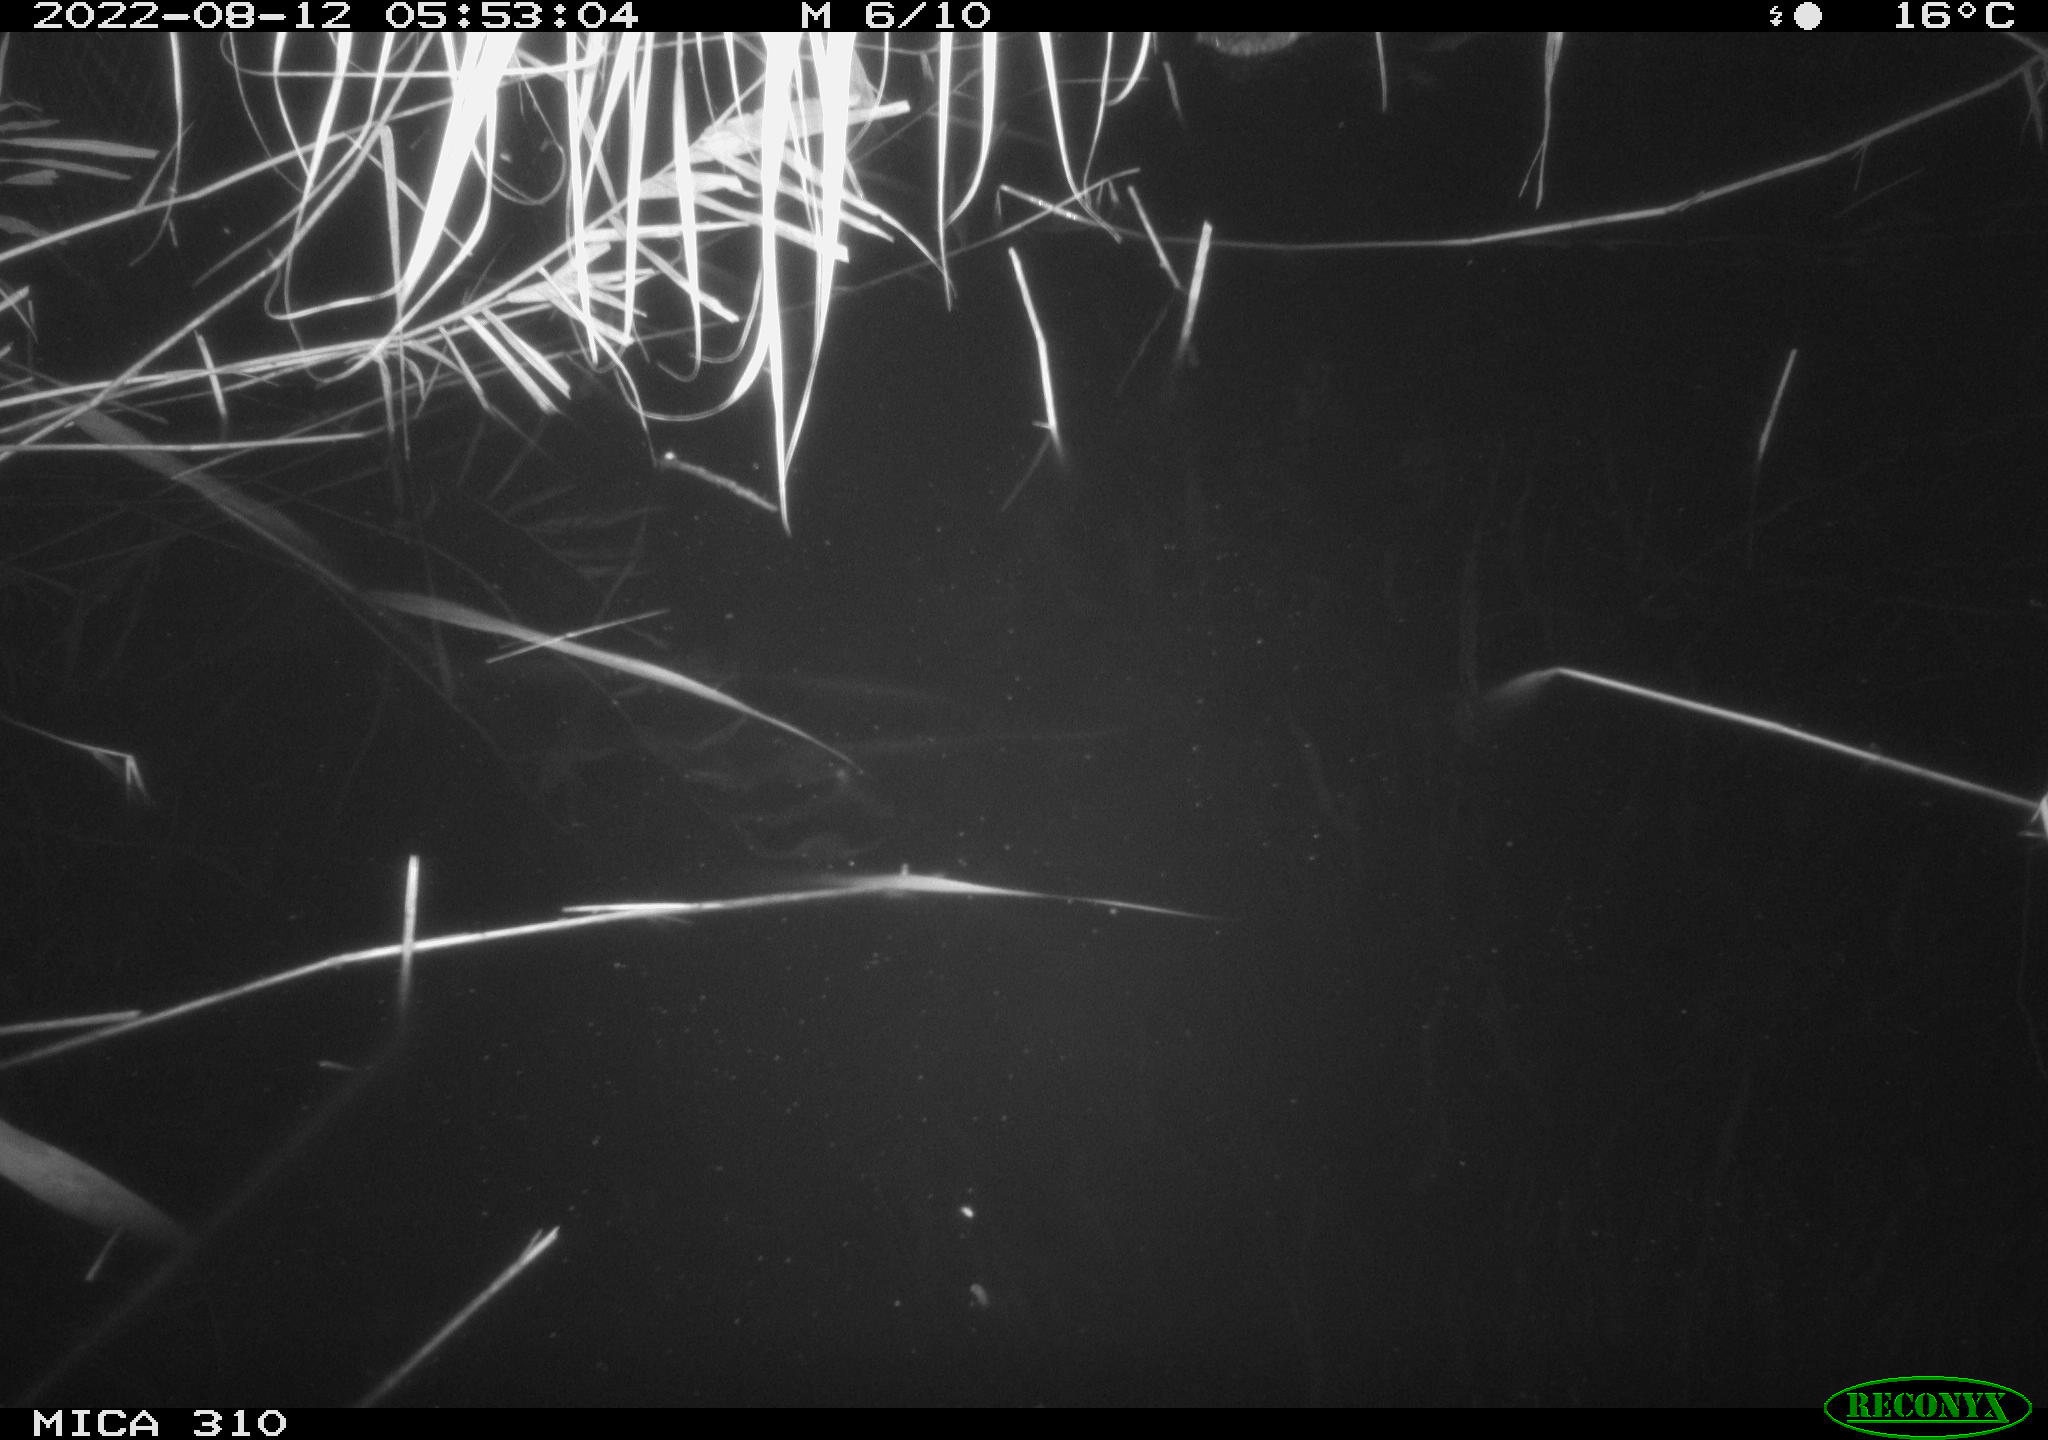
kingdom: Animalia
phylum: Chordata
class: Aves
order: Anseriformes
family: Anatidae
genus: Anas
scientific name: Anas platyrhynchos
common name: Mallard
